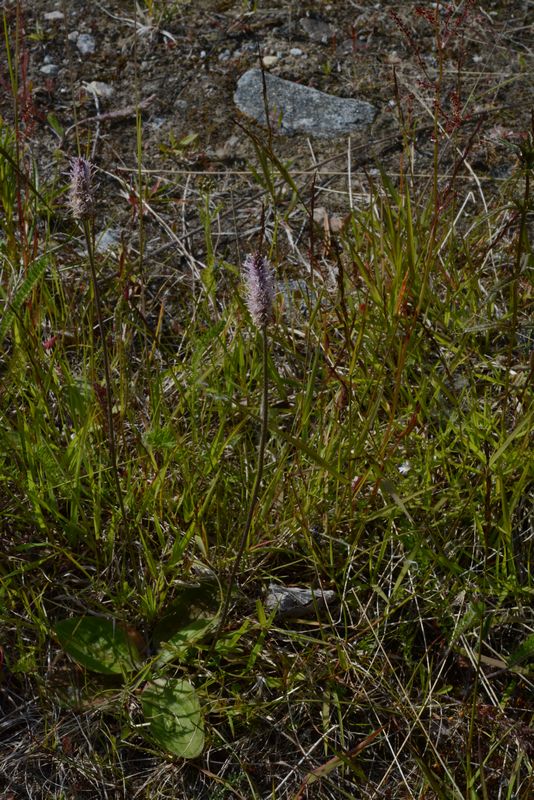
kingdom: Plantae
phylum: Tracheophyta
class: Magnoliopsida
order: Lamiales
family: Plantaginaceae
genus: Plantago
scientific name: Plantago media
